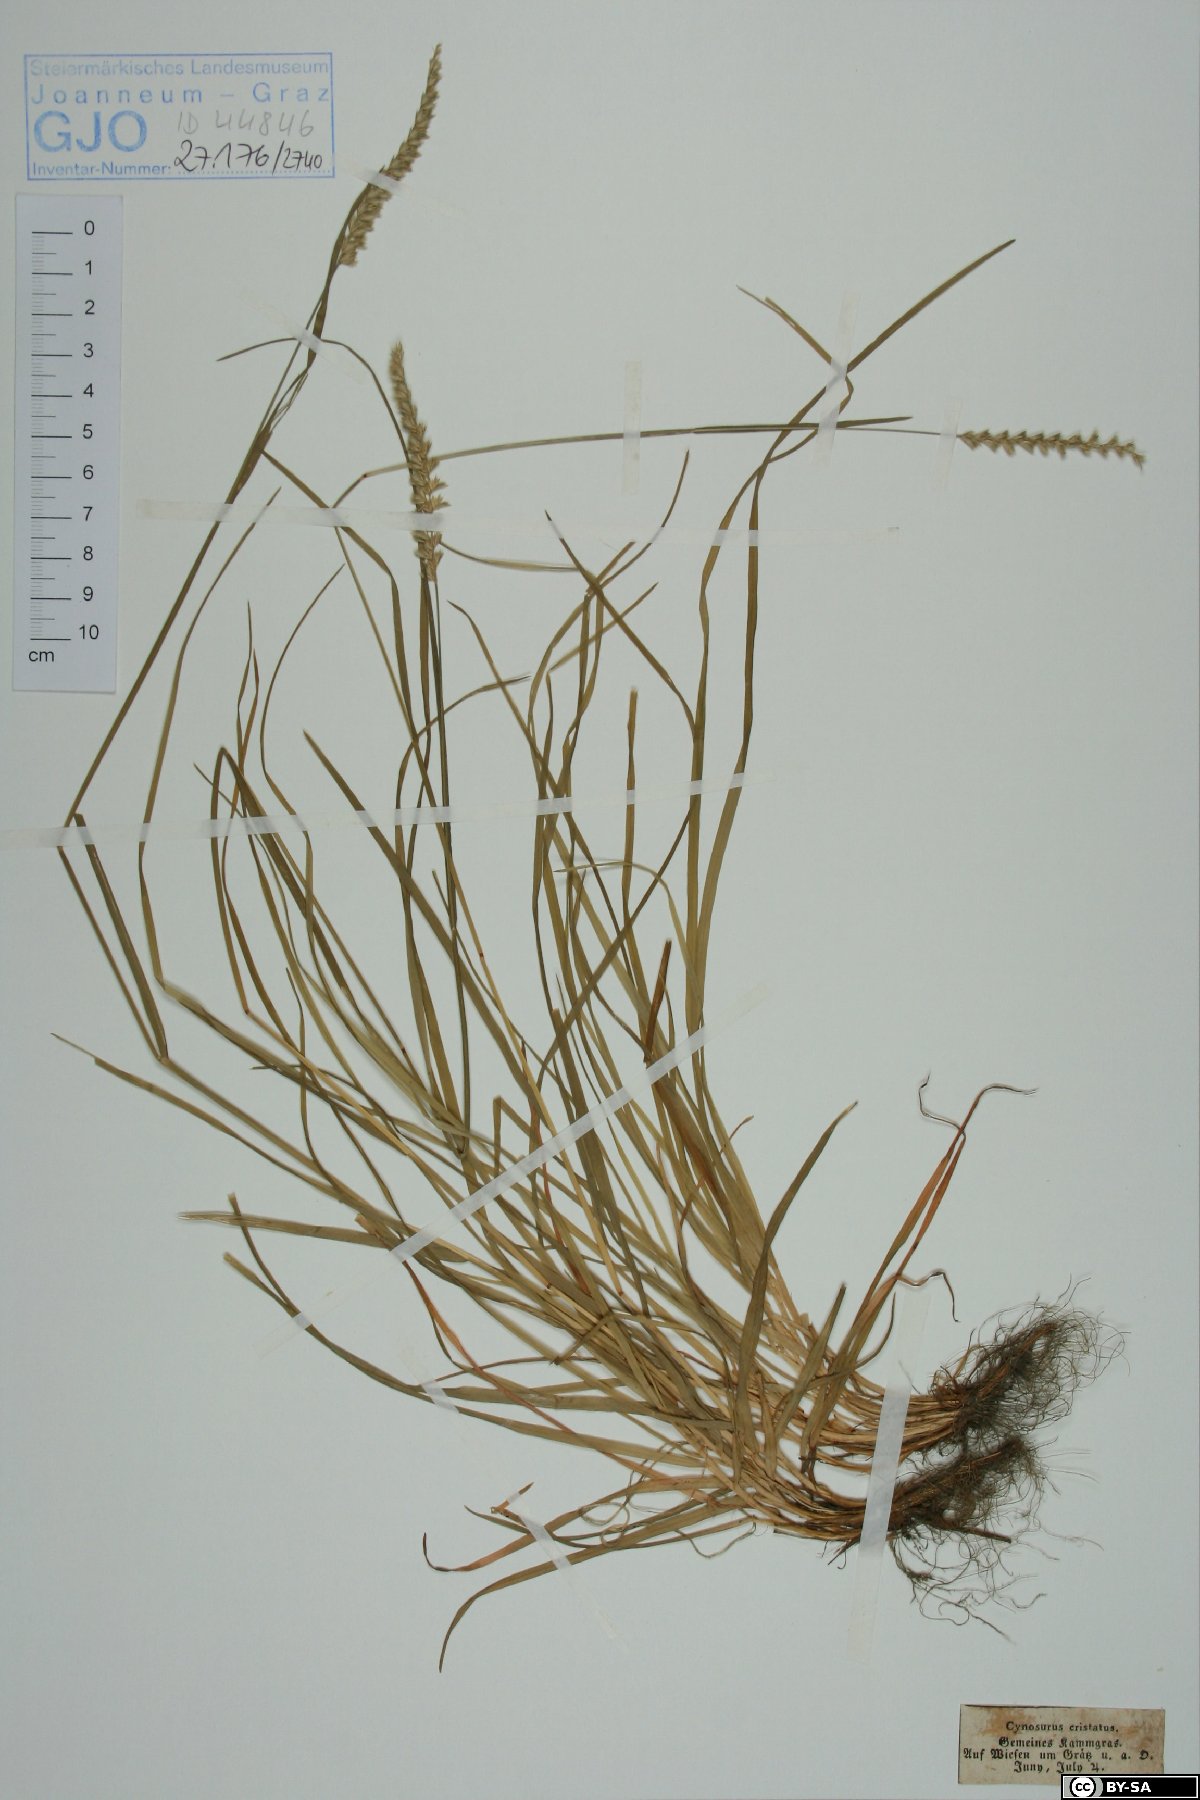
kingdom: Plantae
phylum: Tracheophyta
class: Liliopsida
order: Poales
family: Poaceae
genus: Cynosurus
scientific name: Cynosurus cristatus
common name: Crested dog's-tail
